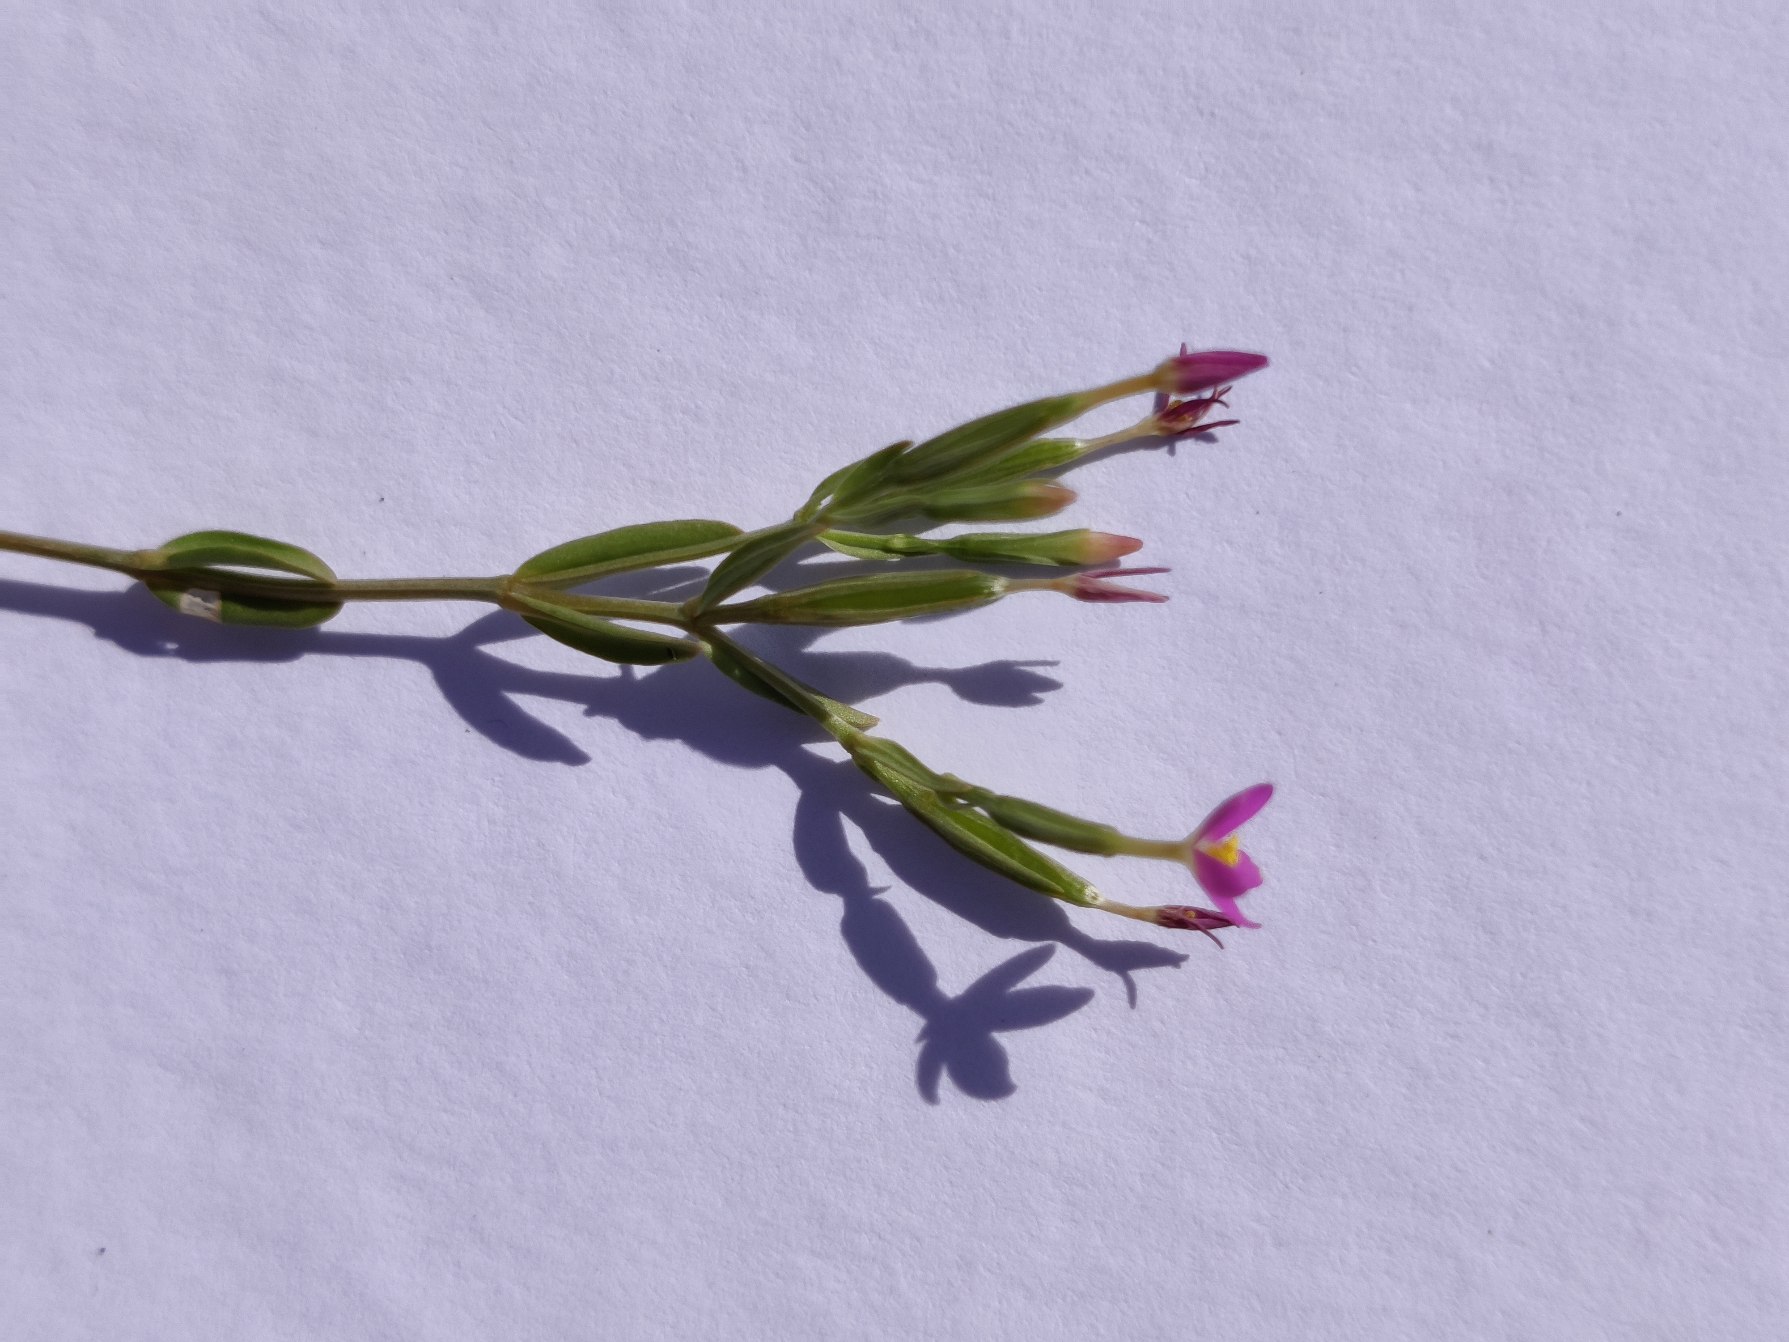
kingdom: Plantae
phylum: Tracheophyta
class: Magnoliopsida
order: Gentianales
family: Gentianaceae
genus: Centaurium
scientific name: Centaurium pulchellum
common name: Liden tusindgylden
